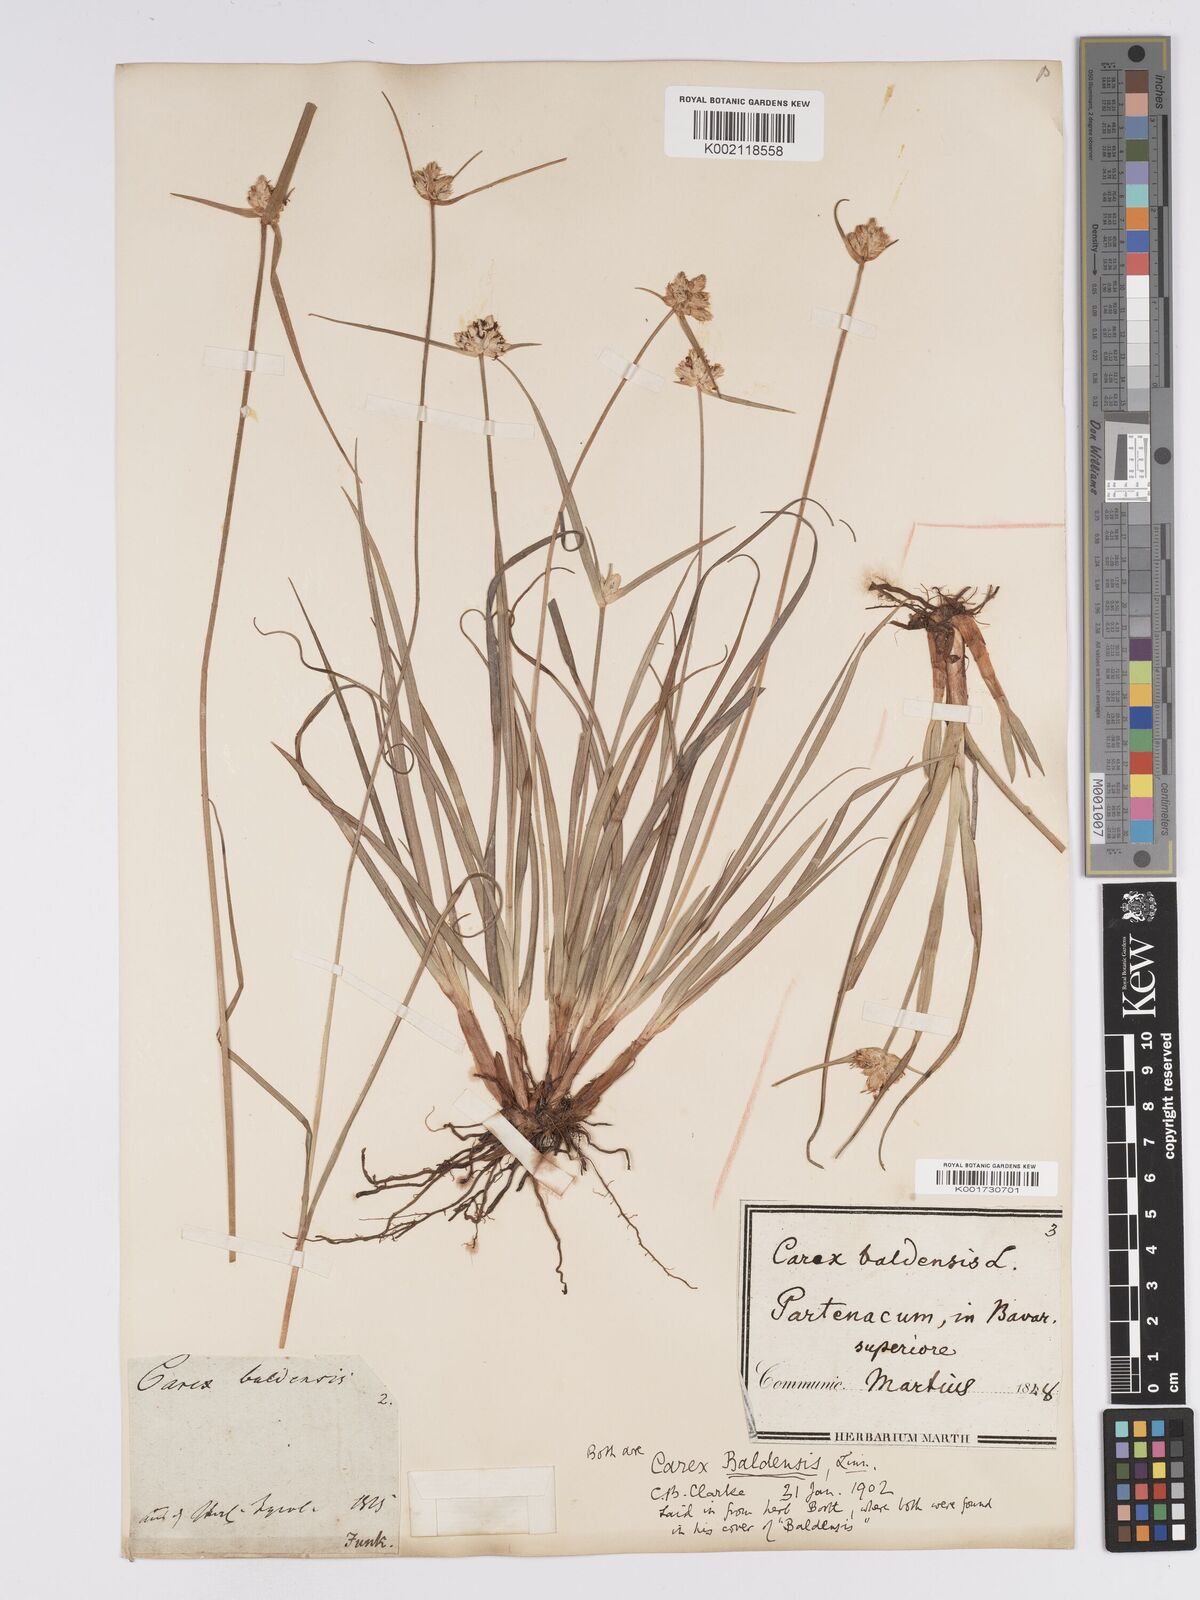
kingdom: Plantae
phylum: Tracheophyta
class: Liliopsida
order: Poales
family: Cyperaceae
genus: Carex
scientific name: Carex baldensis
